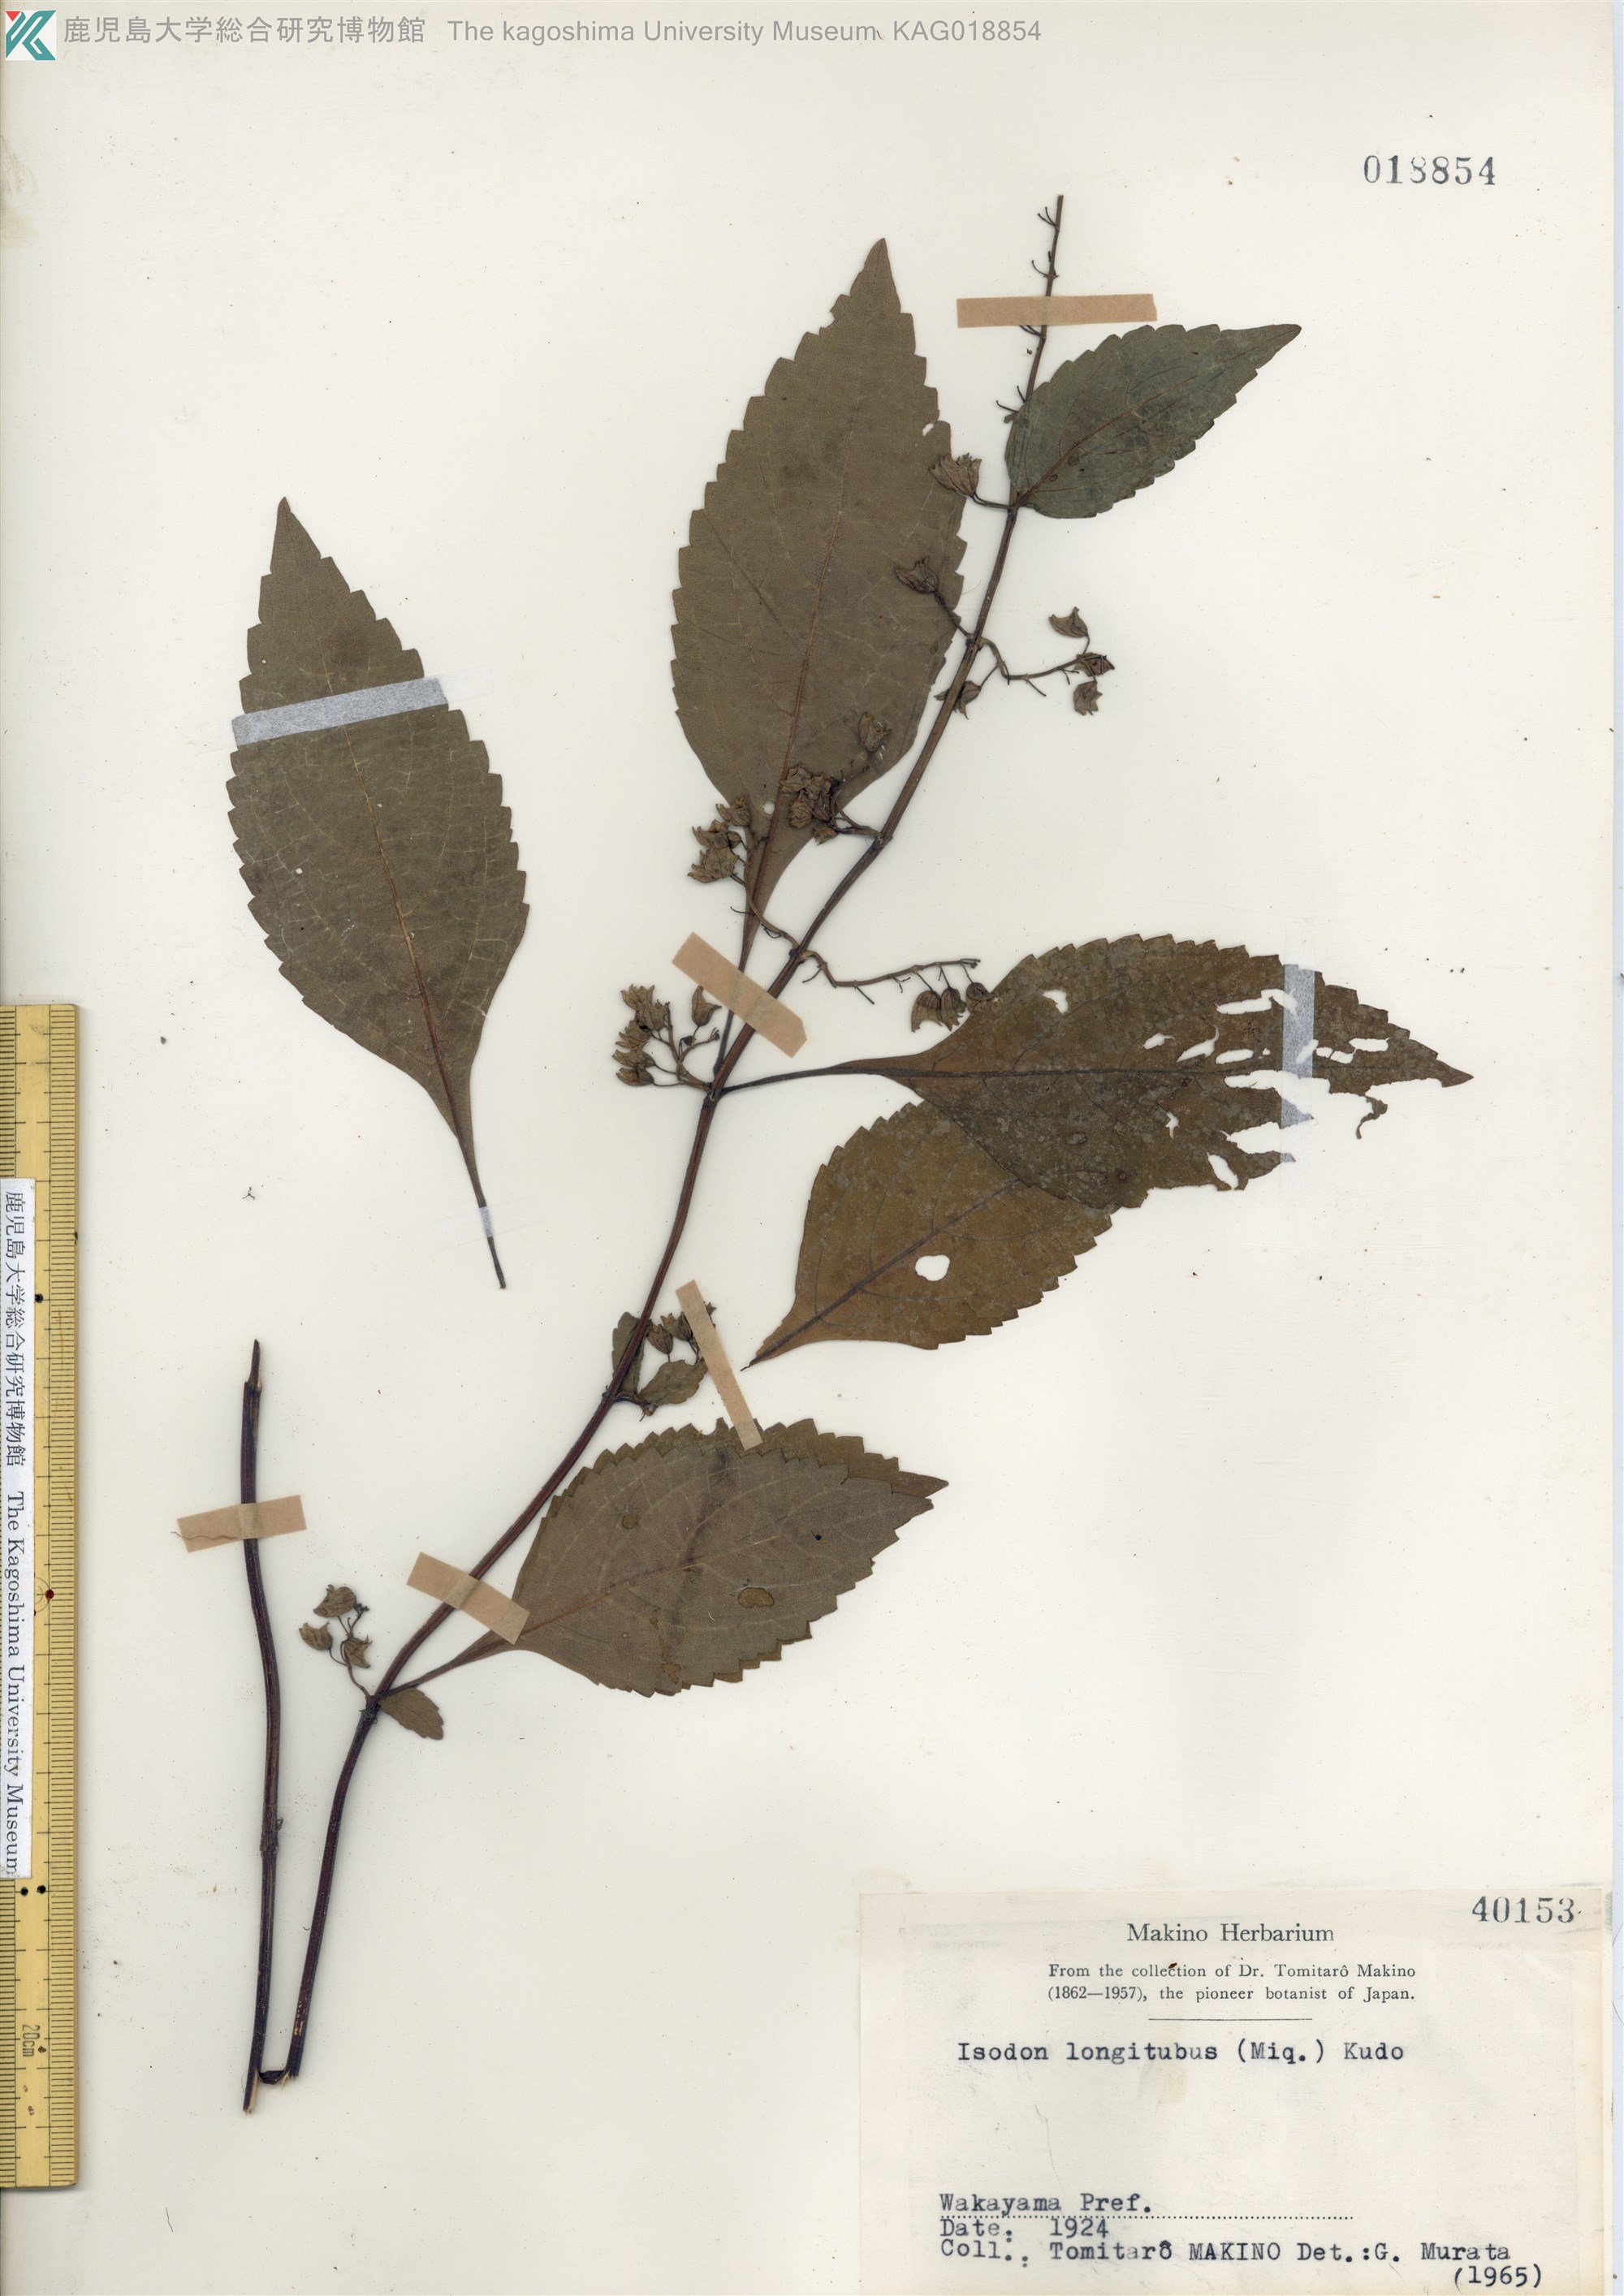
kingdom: Plantae
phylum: Tracheophyta
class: Magnoliopsida
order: Lamiales
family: Lamiaceae
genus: Isodon
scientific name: Isodon longitubus
